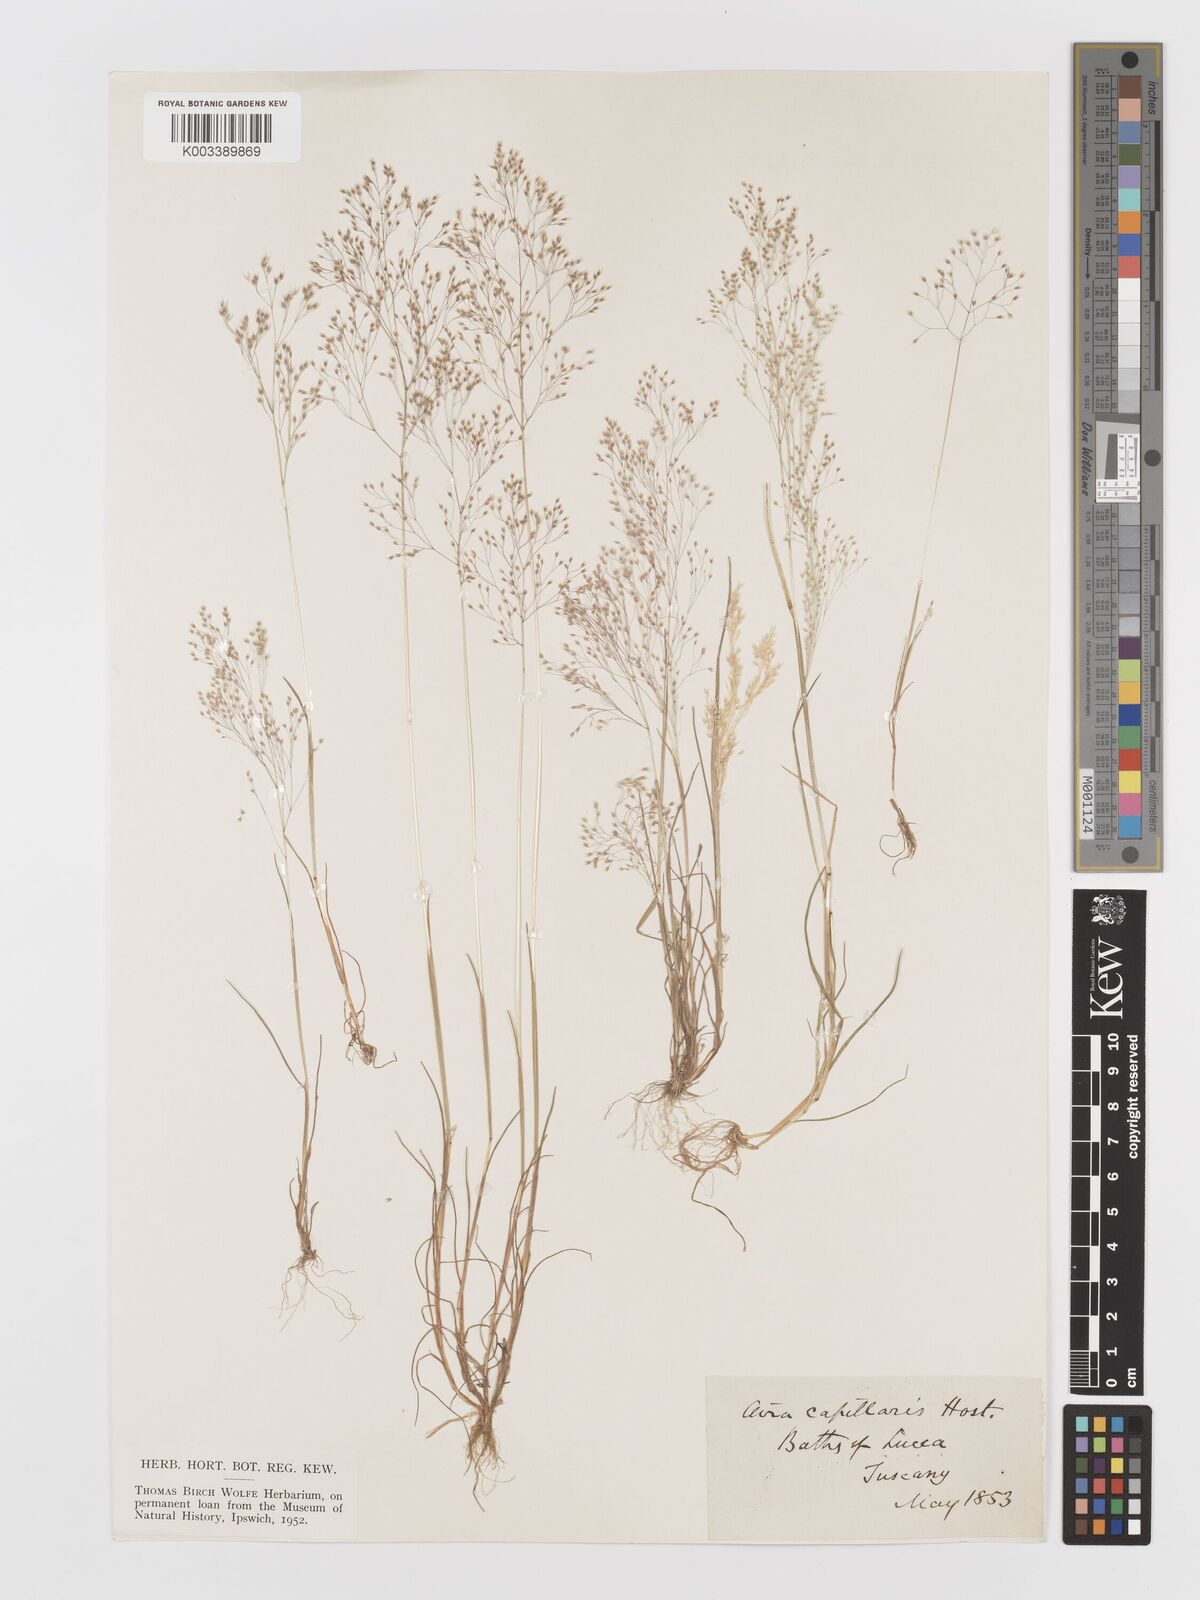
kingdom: Plantae
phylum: Tracheophyta
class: Liliopsida
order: Poales
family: Poaceae
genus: Aira
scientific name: Aira elegans
